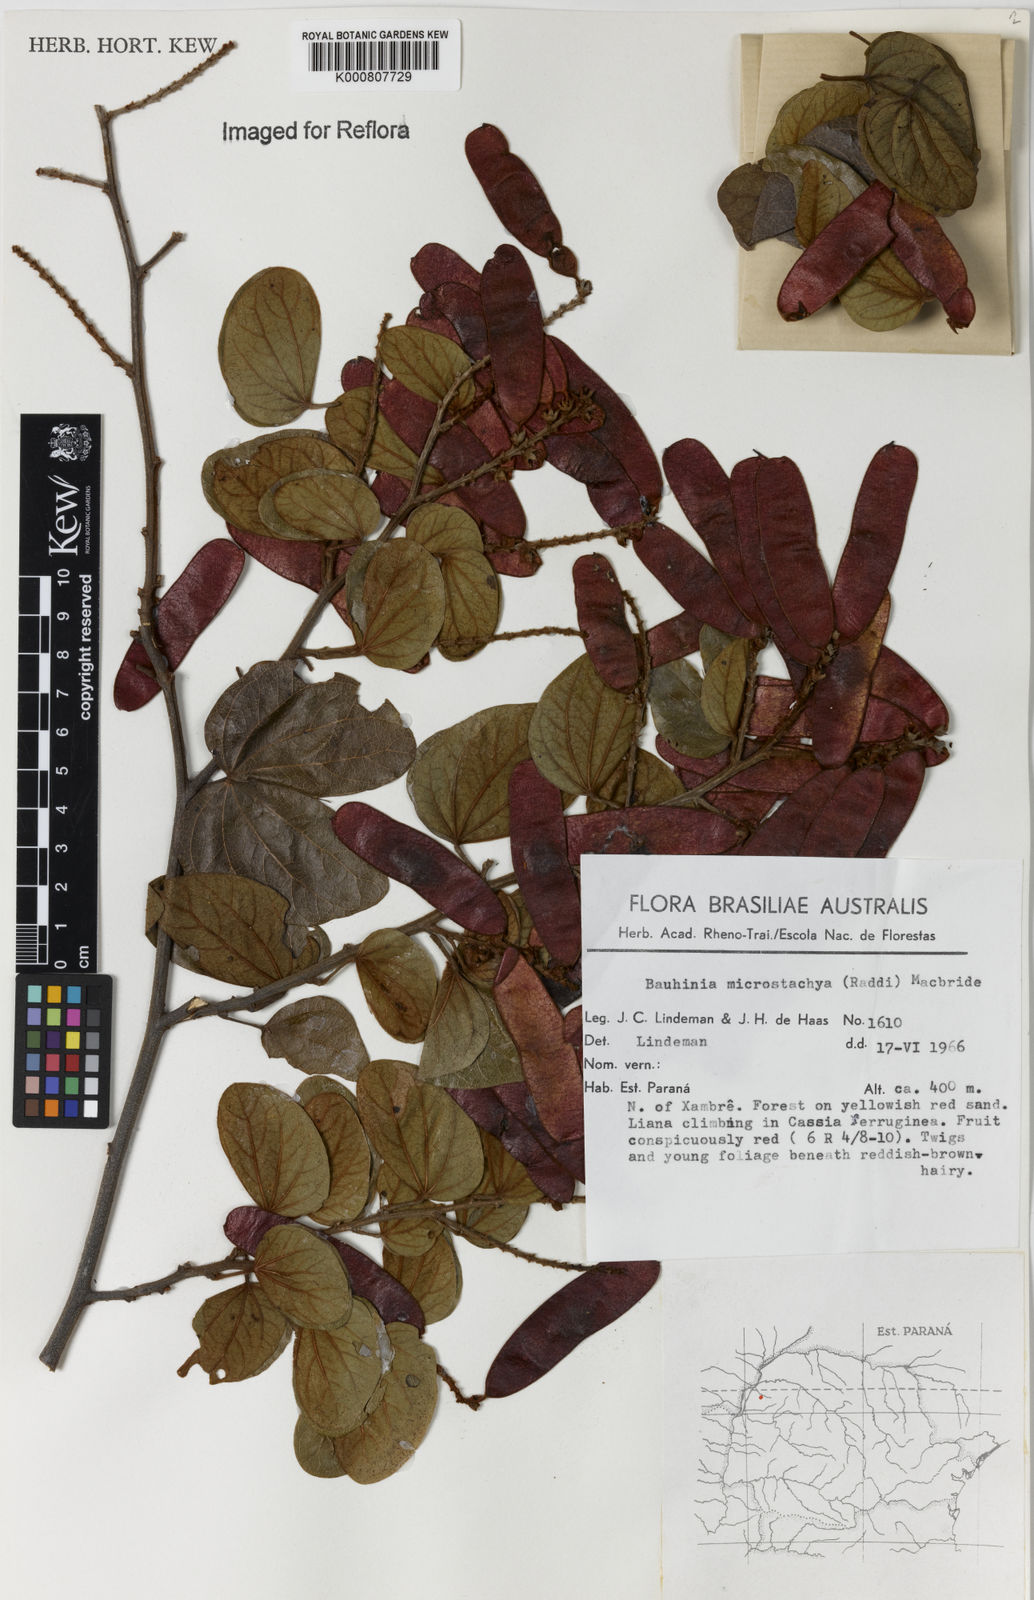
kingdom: Plantae
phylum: Tracheophyta
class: Magnoliopsida
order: Fabales
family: Fabaceae
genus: Schnella
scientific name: Schnella microstachya
